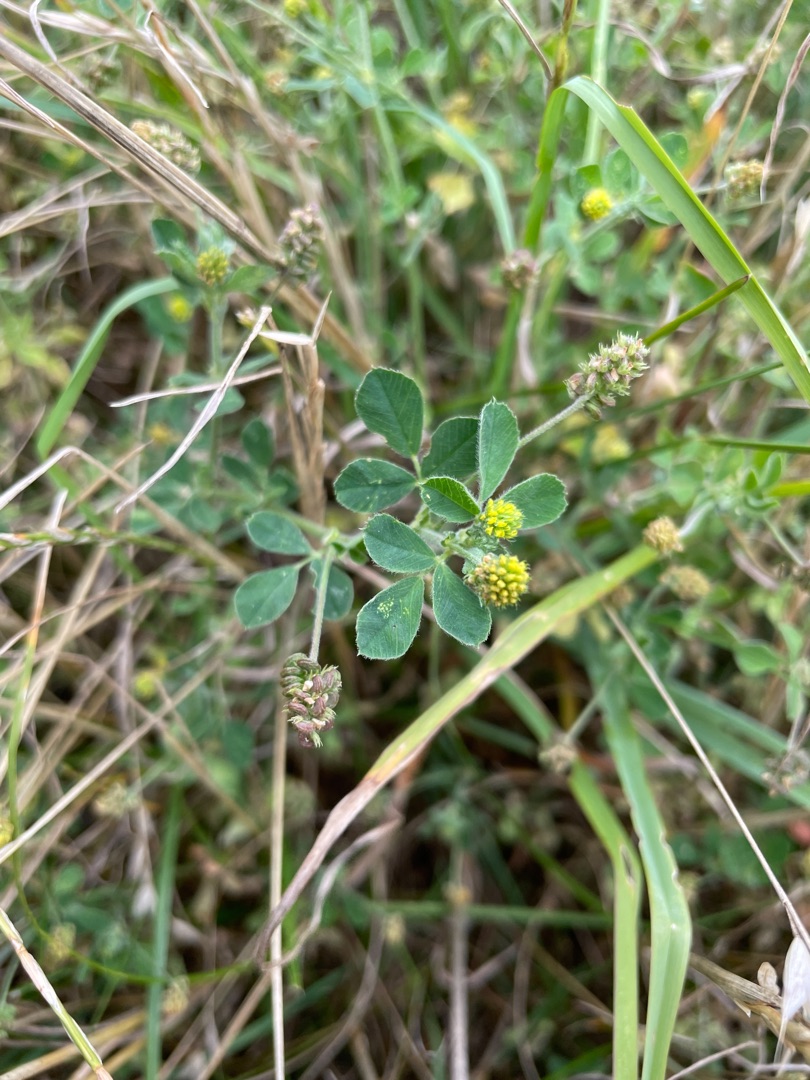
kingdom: Plantae
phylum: Tracheophyta
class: Magnoliopsida
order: Fabales
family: Fabaceae
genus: Medicago
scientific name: Medicago lupulina
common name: Humle-sneglebælg
